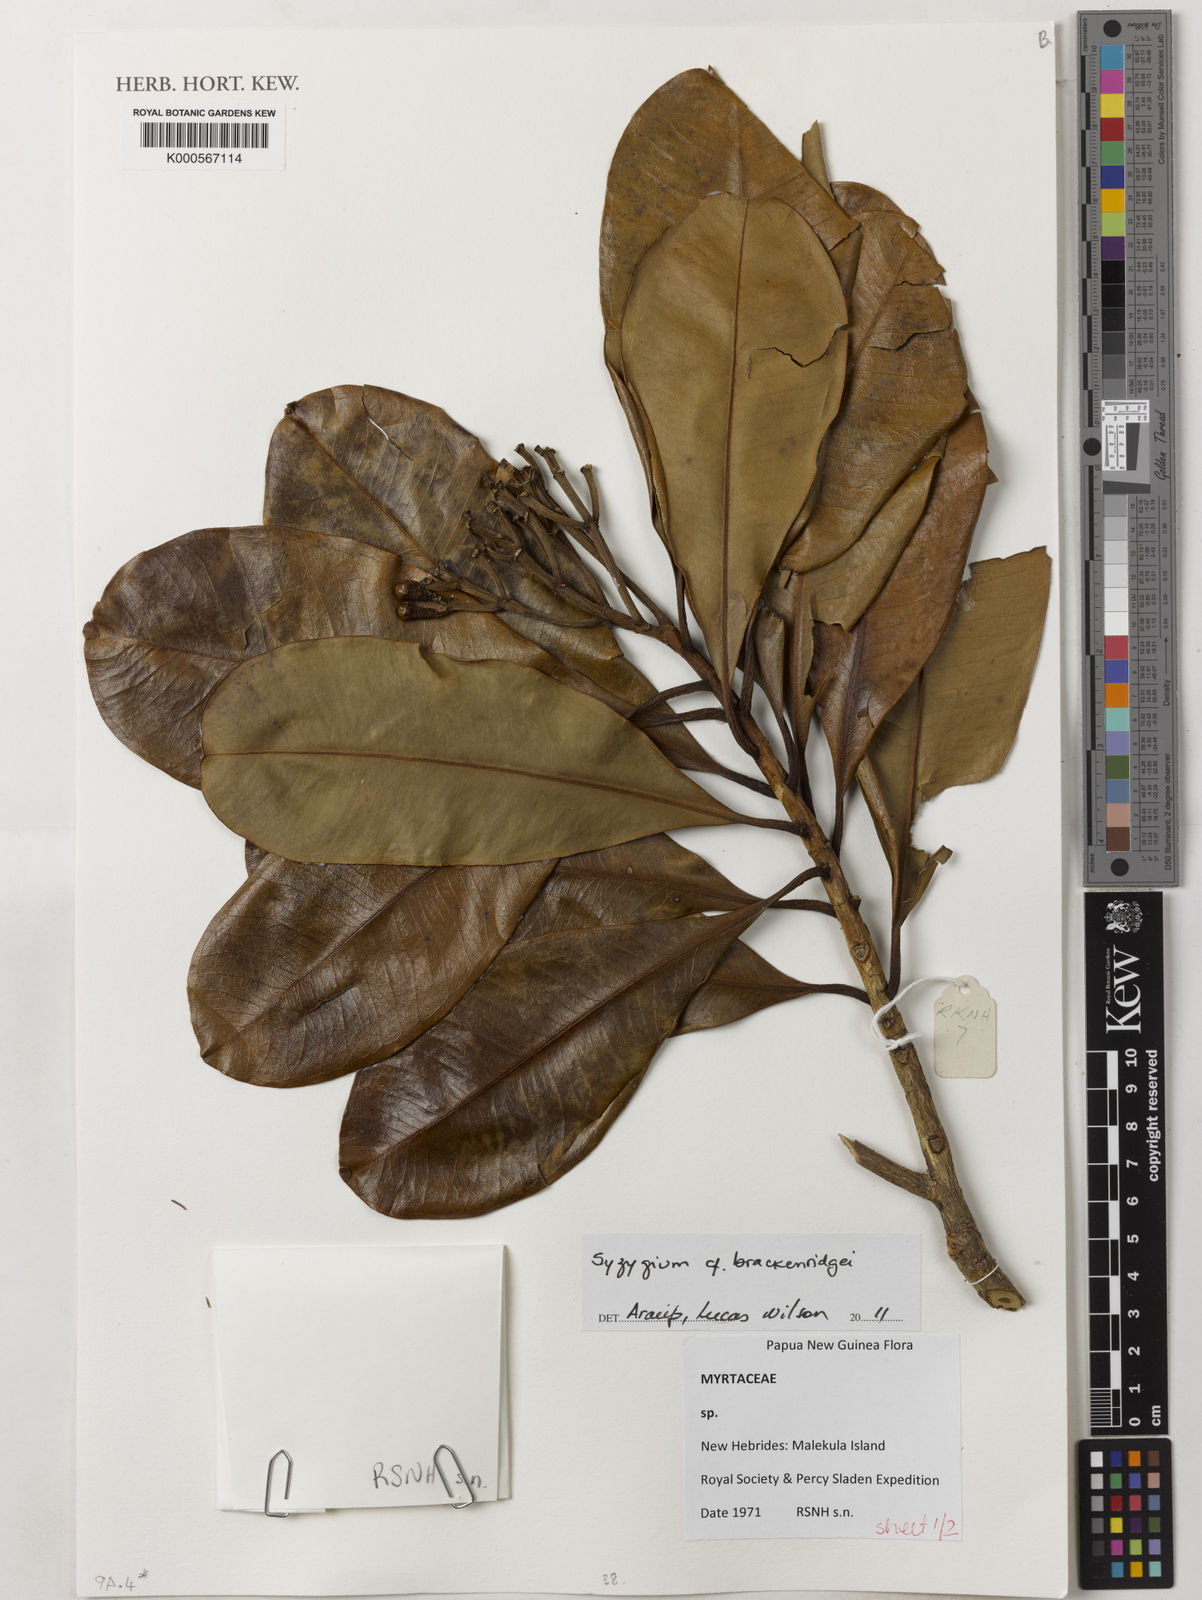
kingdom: Plantae
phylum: Tracheophyta
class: Magnoliopsida
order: Myrtales
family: Myrtaceae
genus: Syzygium
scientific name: Syzygium
